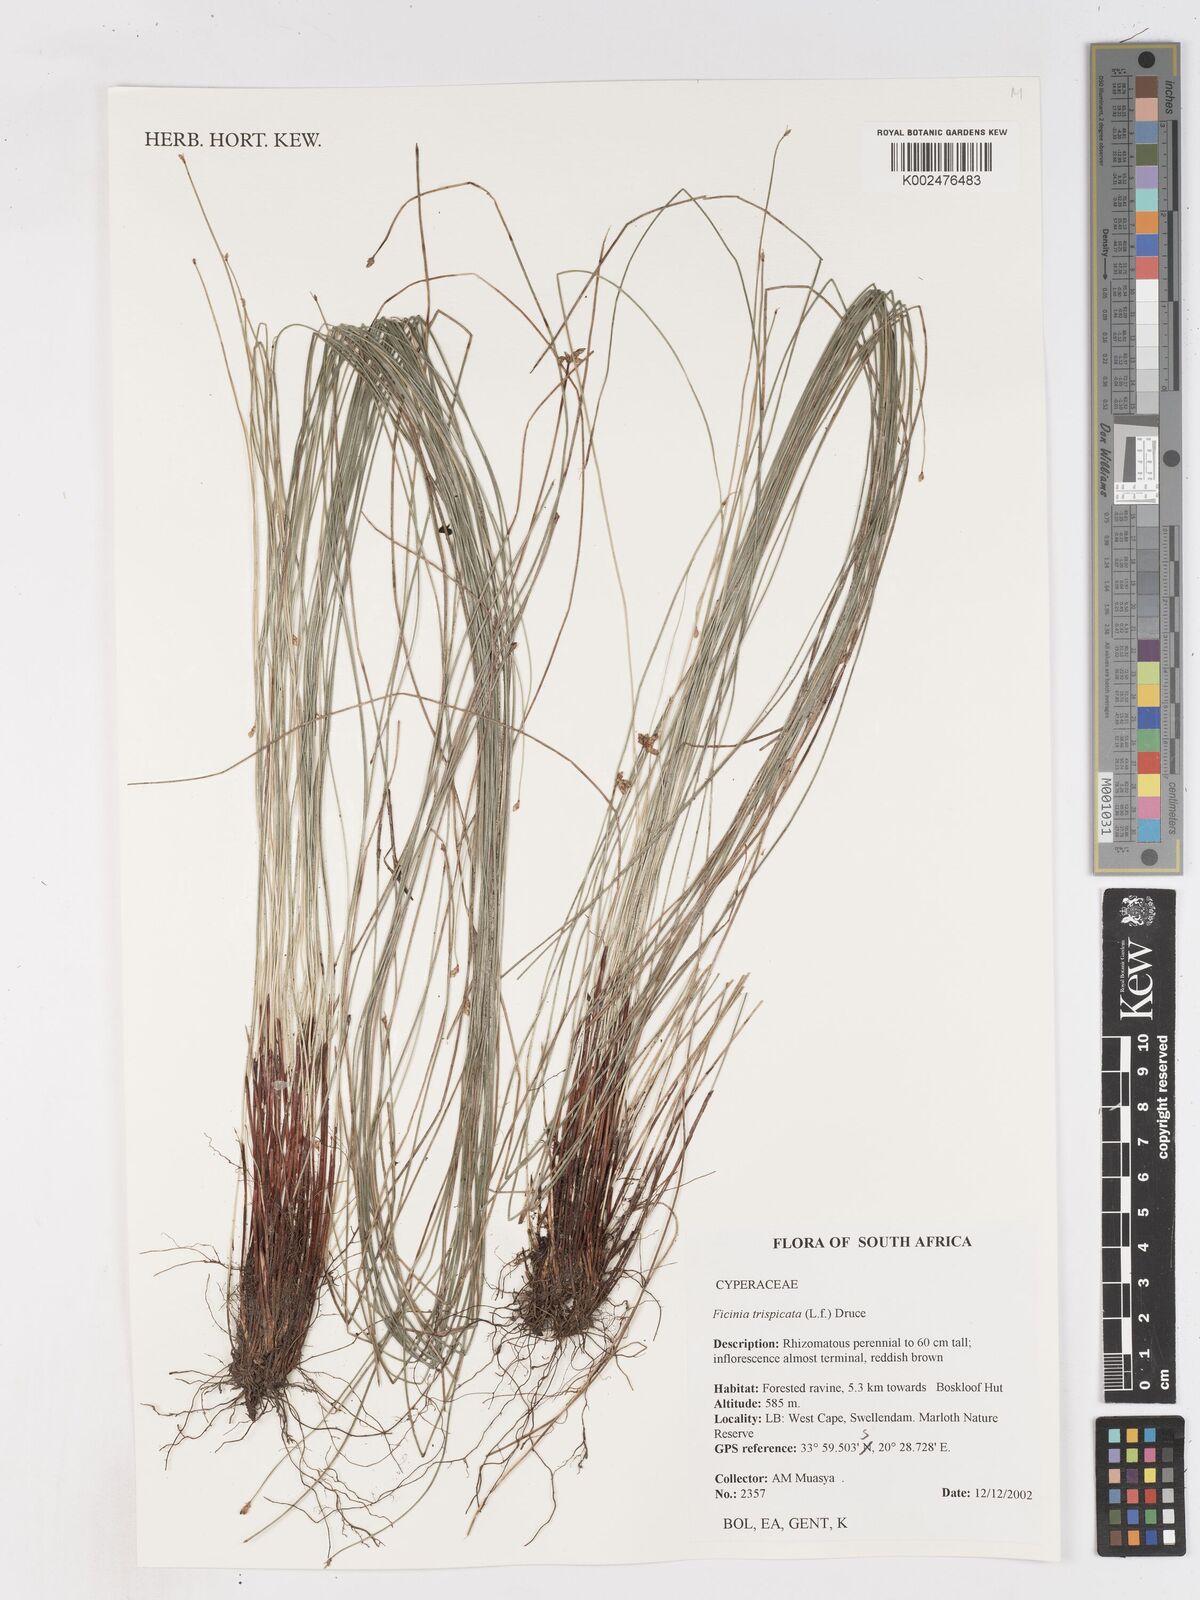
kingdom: Plantae
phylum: Tracheophyta
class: Liliopsida
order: Poales
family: Cyperaceae
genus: Ficinia
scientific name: Ficinia sylvatica
